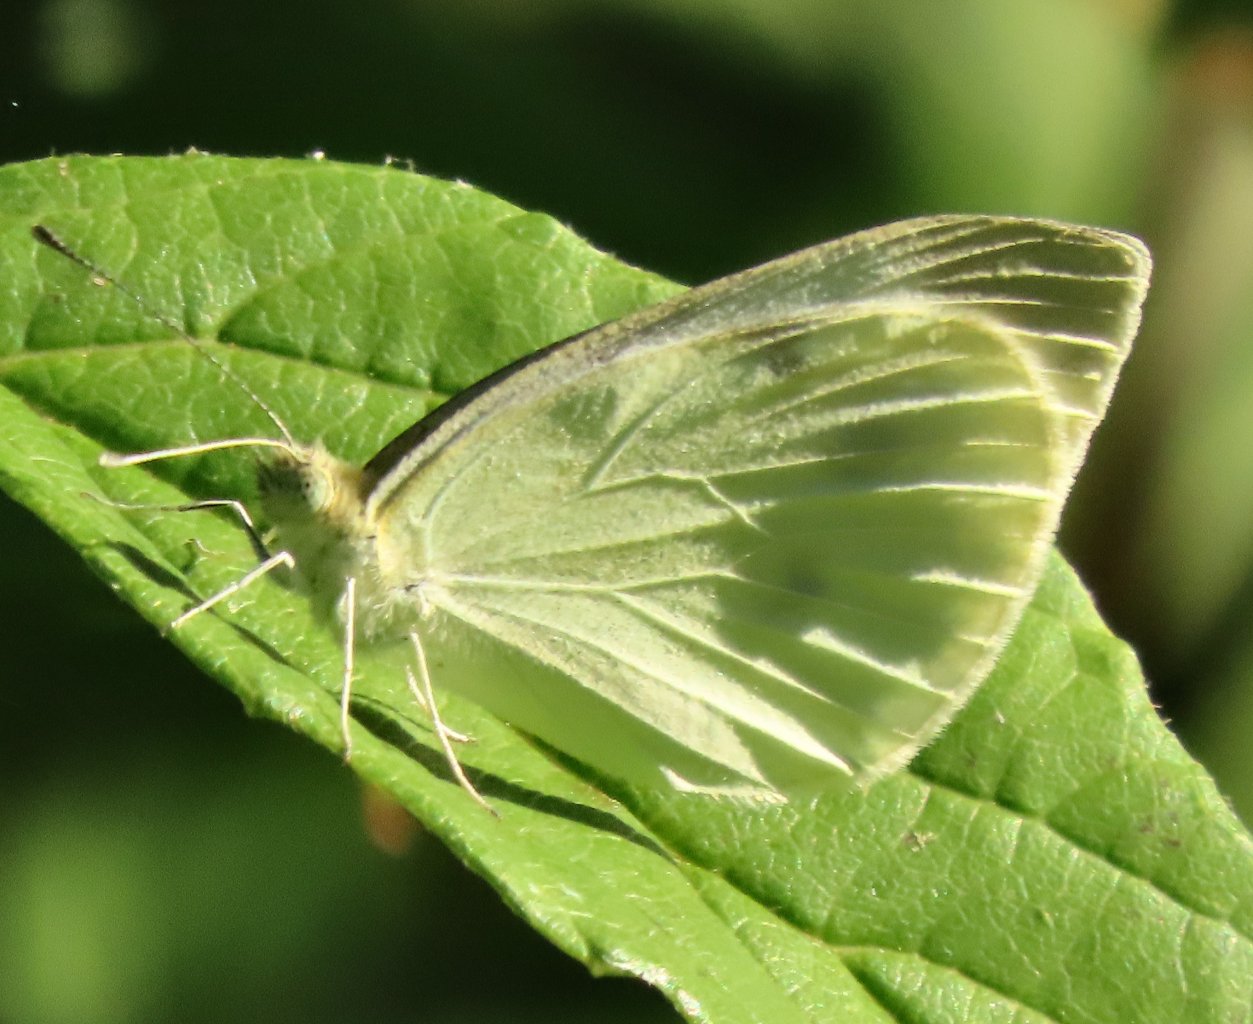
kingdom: Animalia
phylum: Arthropoda
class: Insecta
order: Lepidoptera
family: Pieridae
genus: Pieris
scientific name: Pieris rapae
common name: Cabbage White
